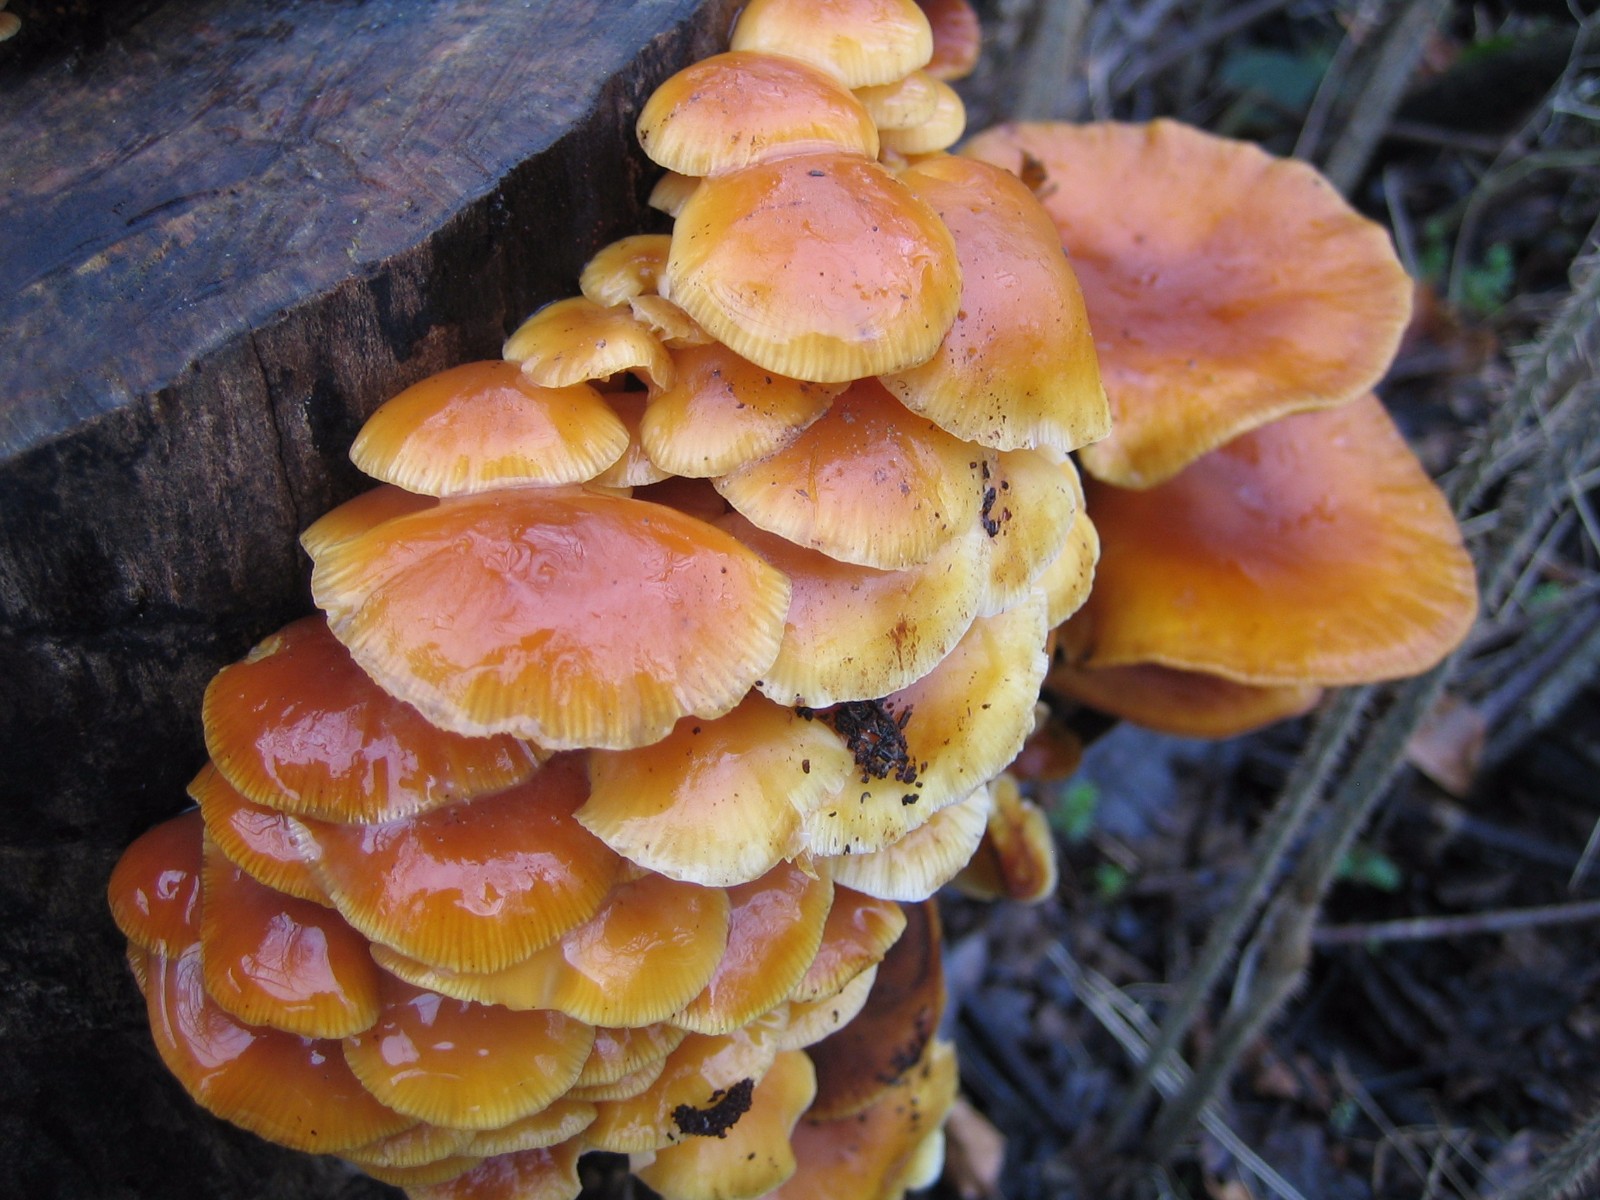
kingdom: Fungi
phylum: Basidiomycota
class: Agaricomycetes
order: Agaricales
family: Physalacriaceae
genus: Flammulina
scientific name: Flammulina velutipes
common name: gul fløjlsfod
